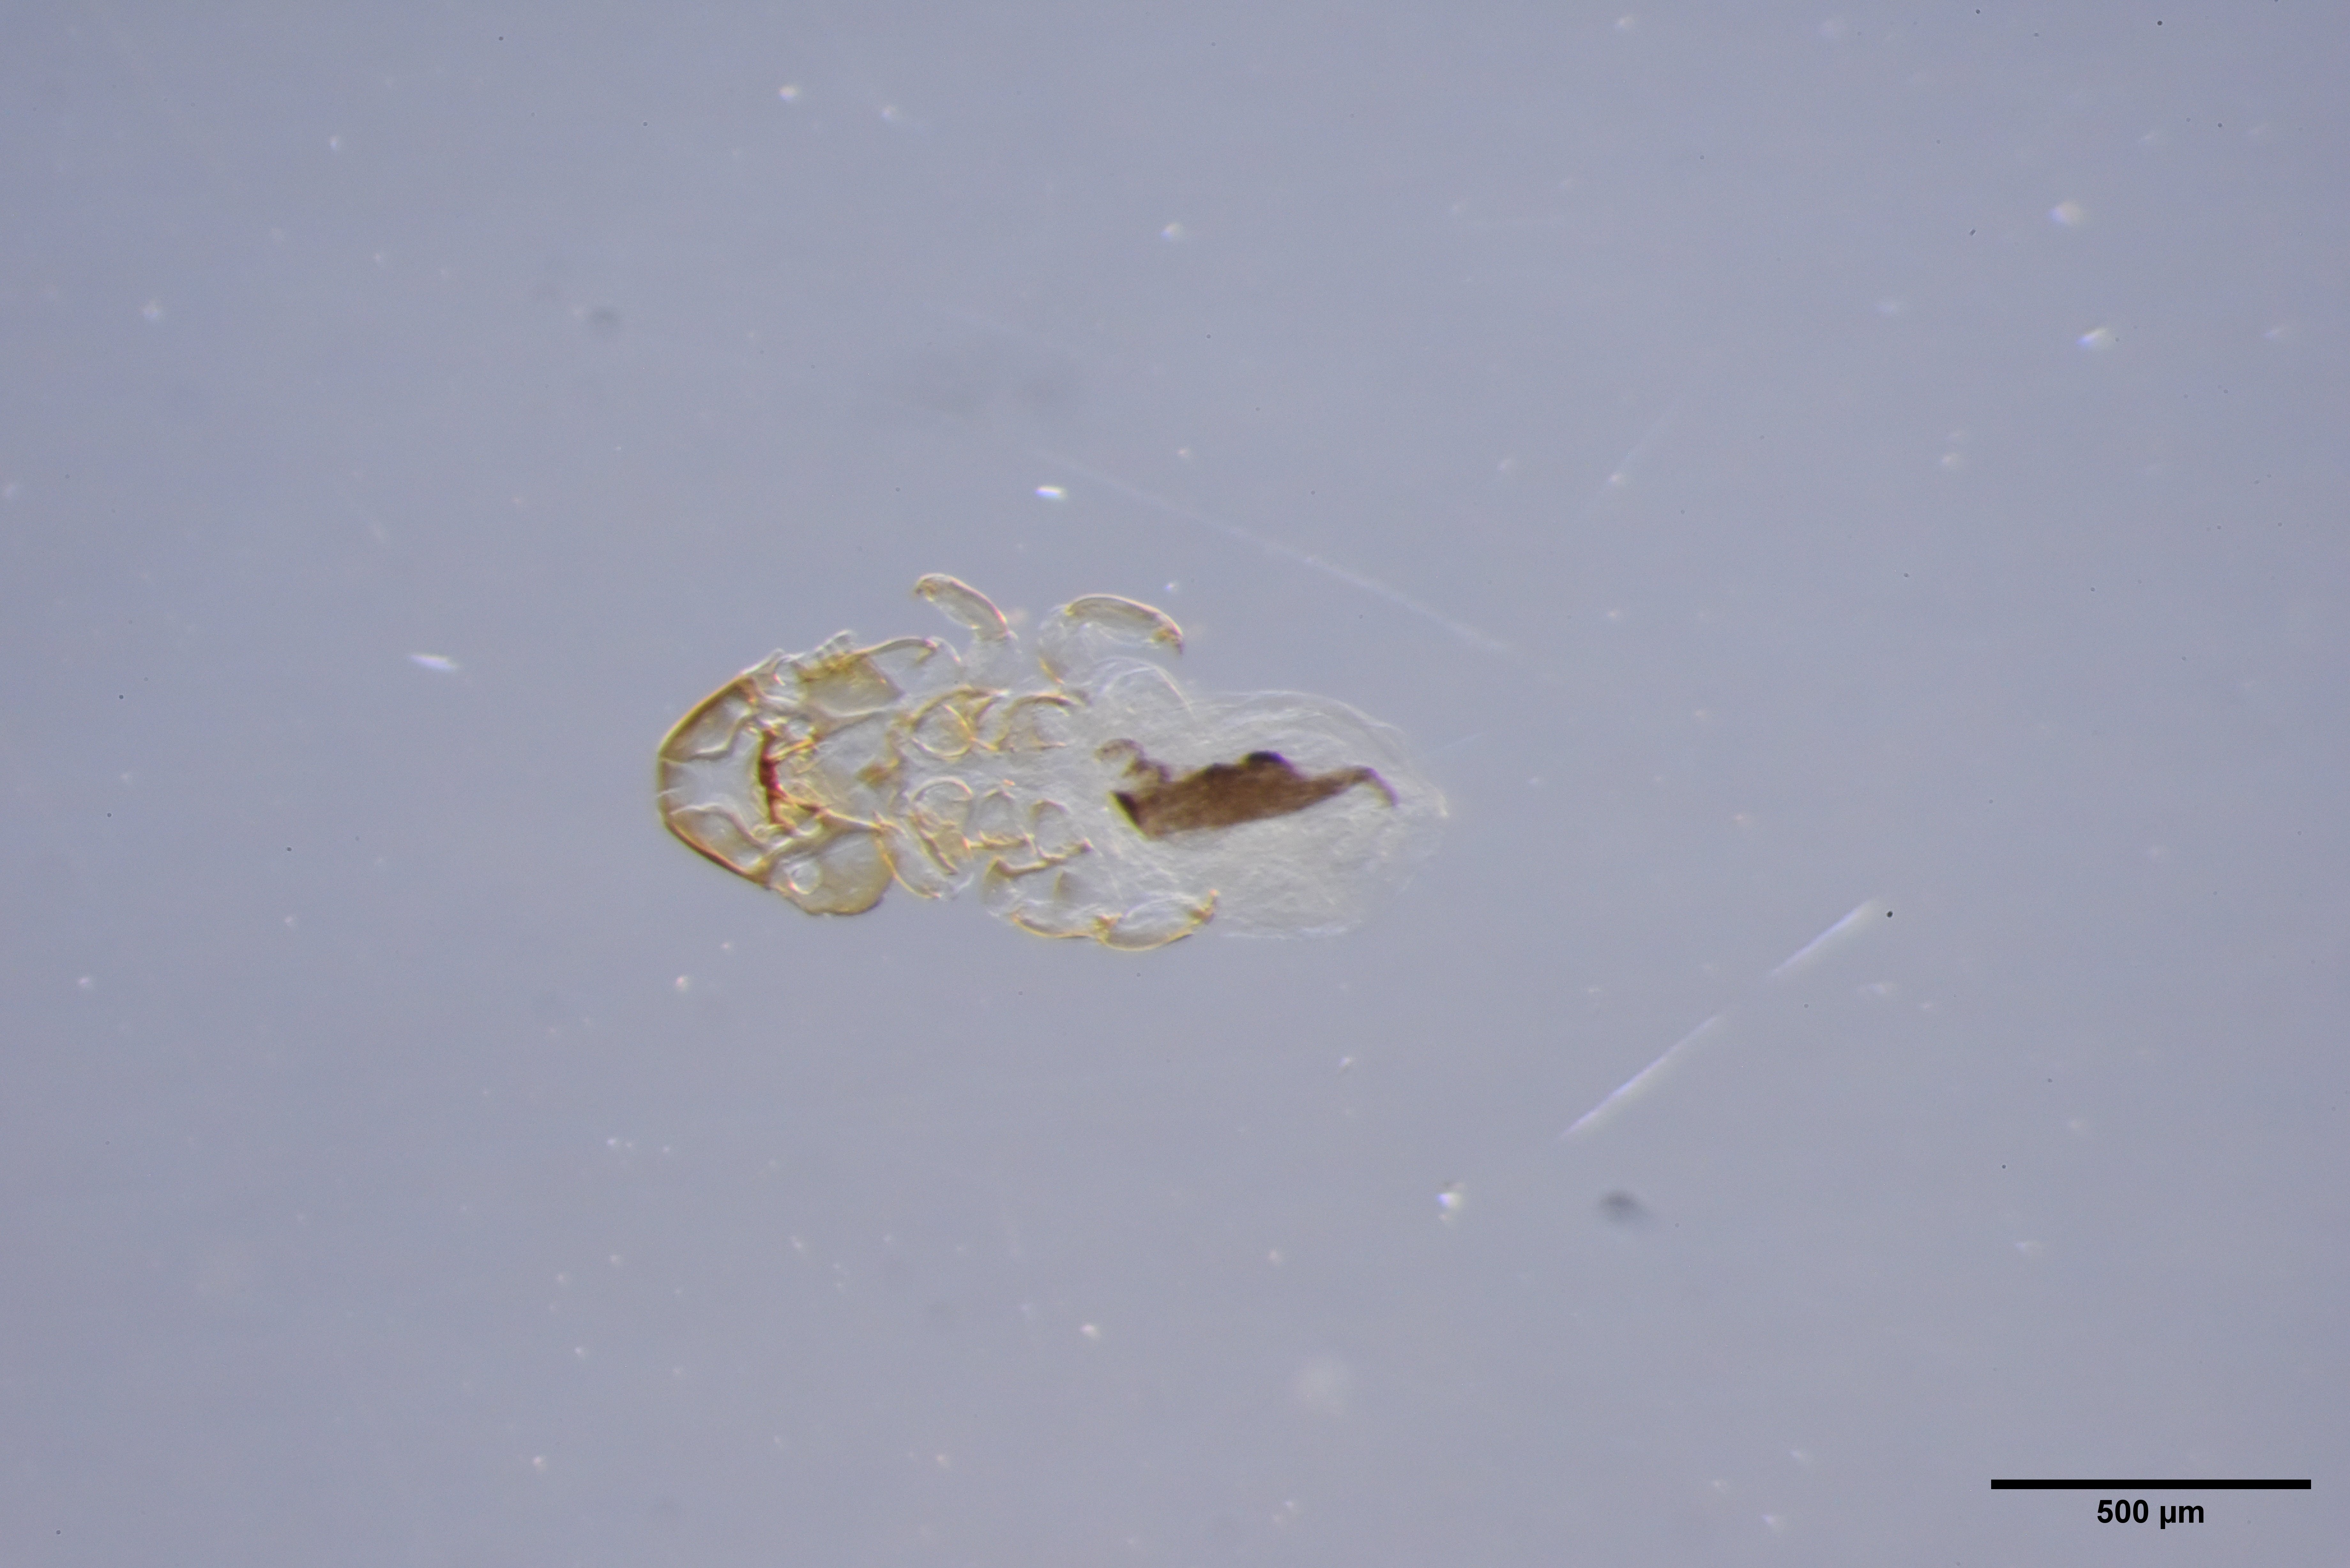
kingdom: Animalia
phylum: Arthropoda
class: Insecta
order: Psocodea
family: Philopteridae
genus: Anatoecus
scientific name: Anatoecus dentatus
